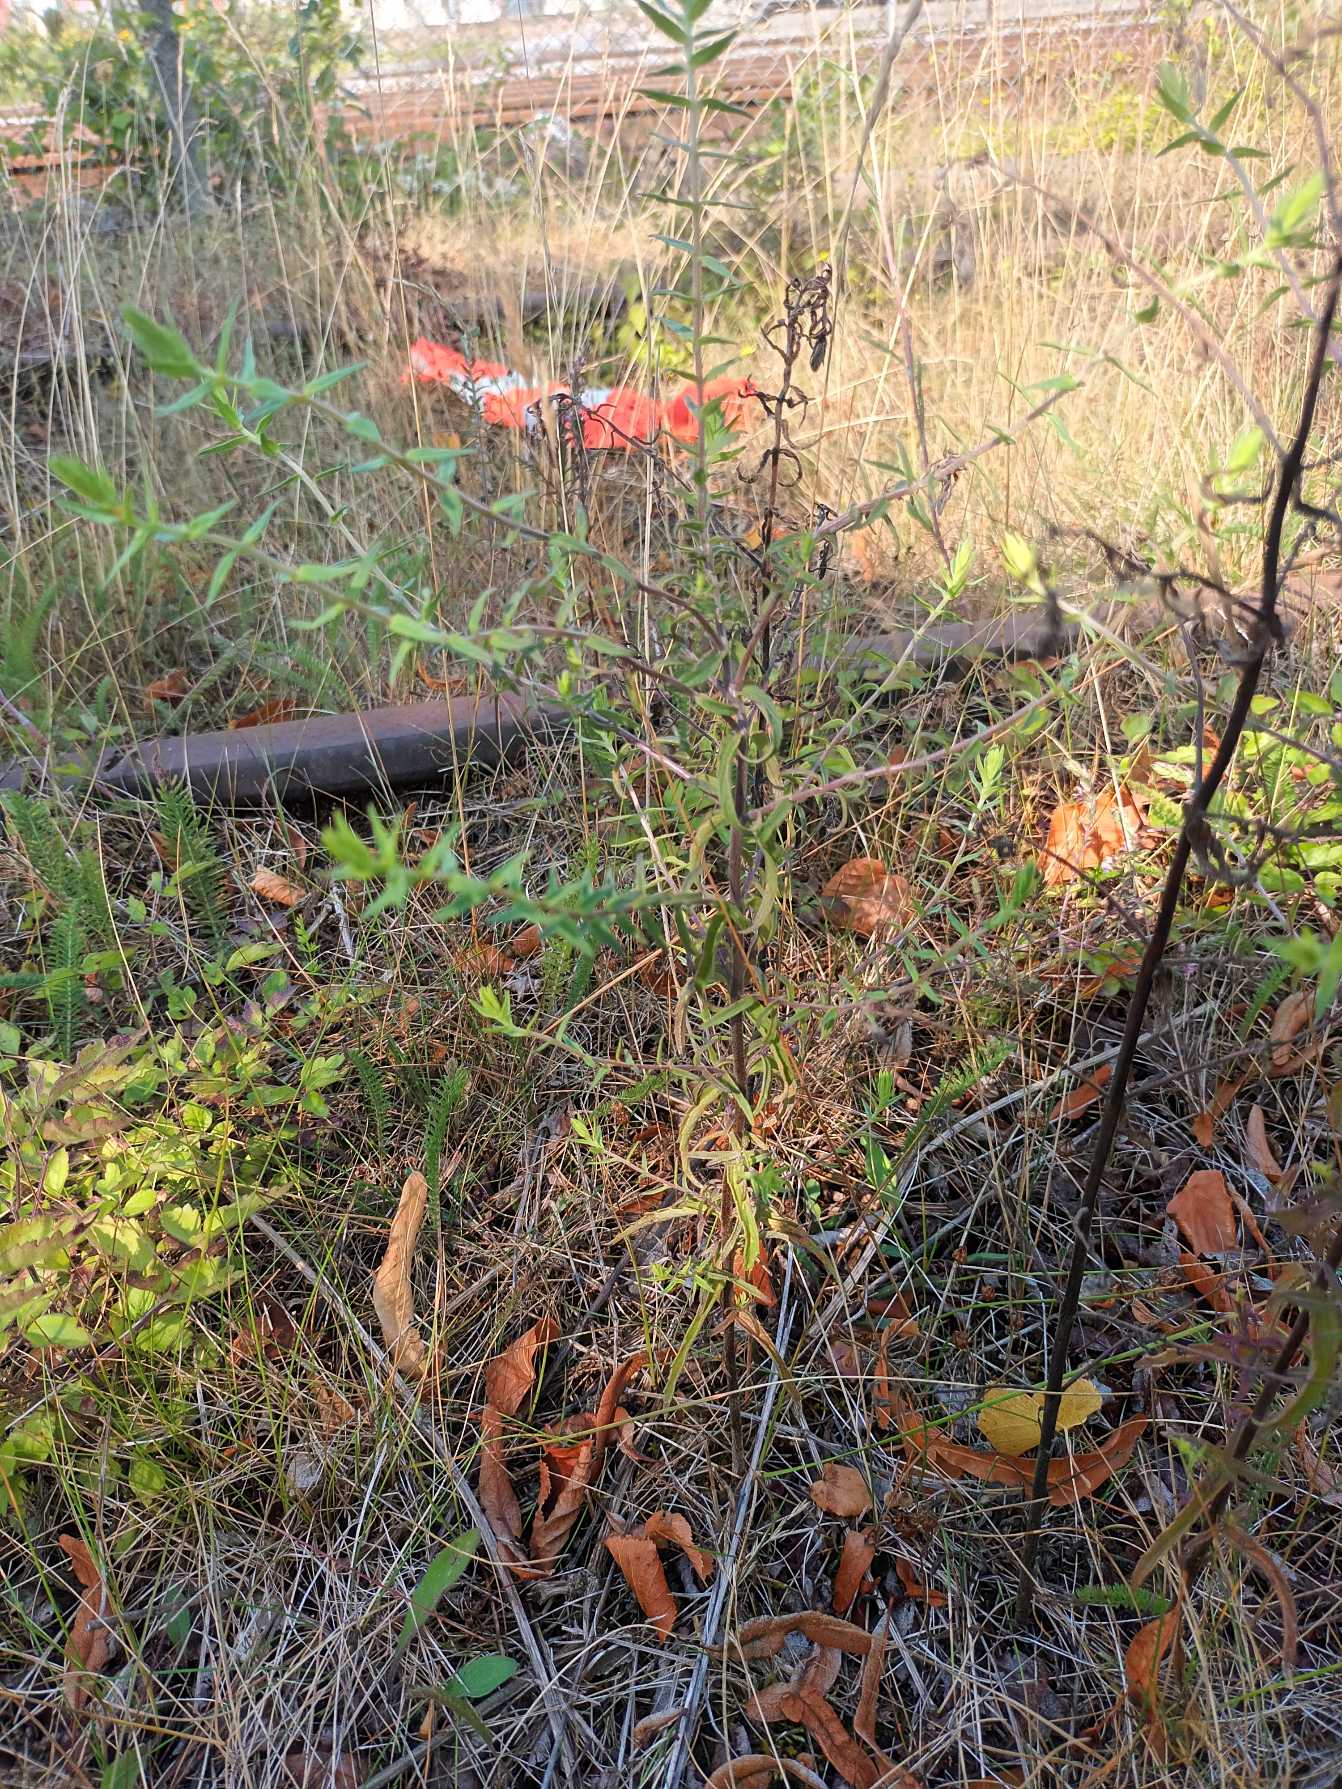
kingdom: Plantae
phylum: Tracheophyta
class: Magnoliopsida
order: Lamiales
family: Orobanchaceae
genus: Odontites
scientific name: Odontites vulgaris
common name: Høst-rødtop
